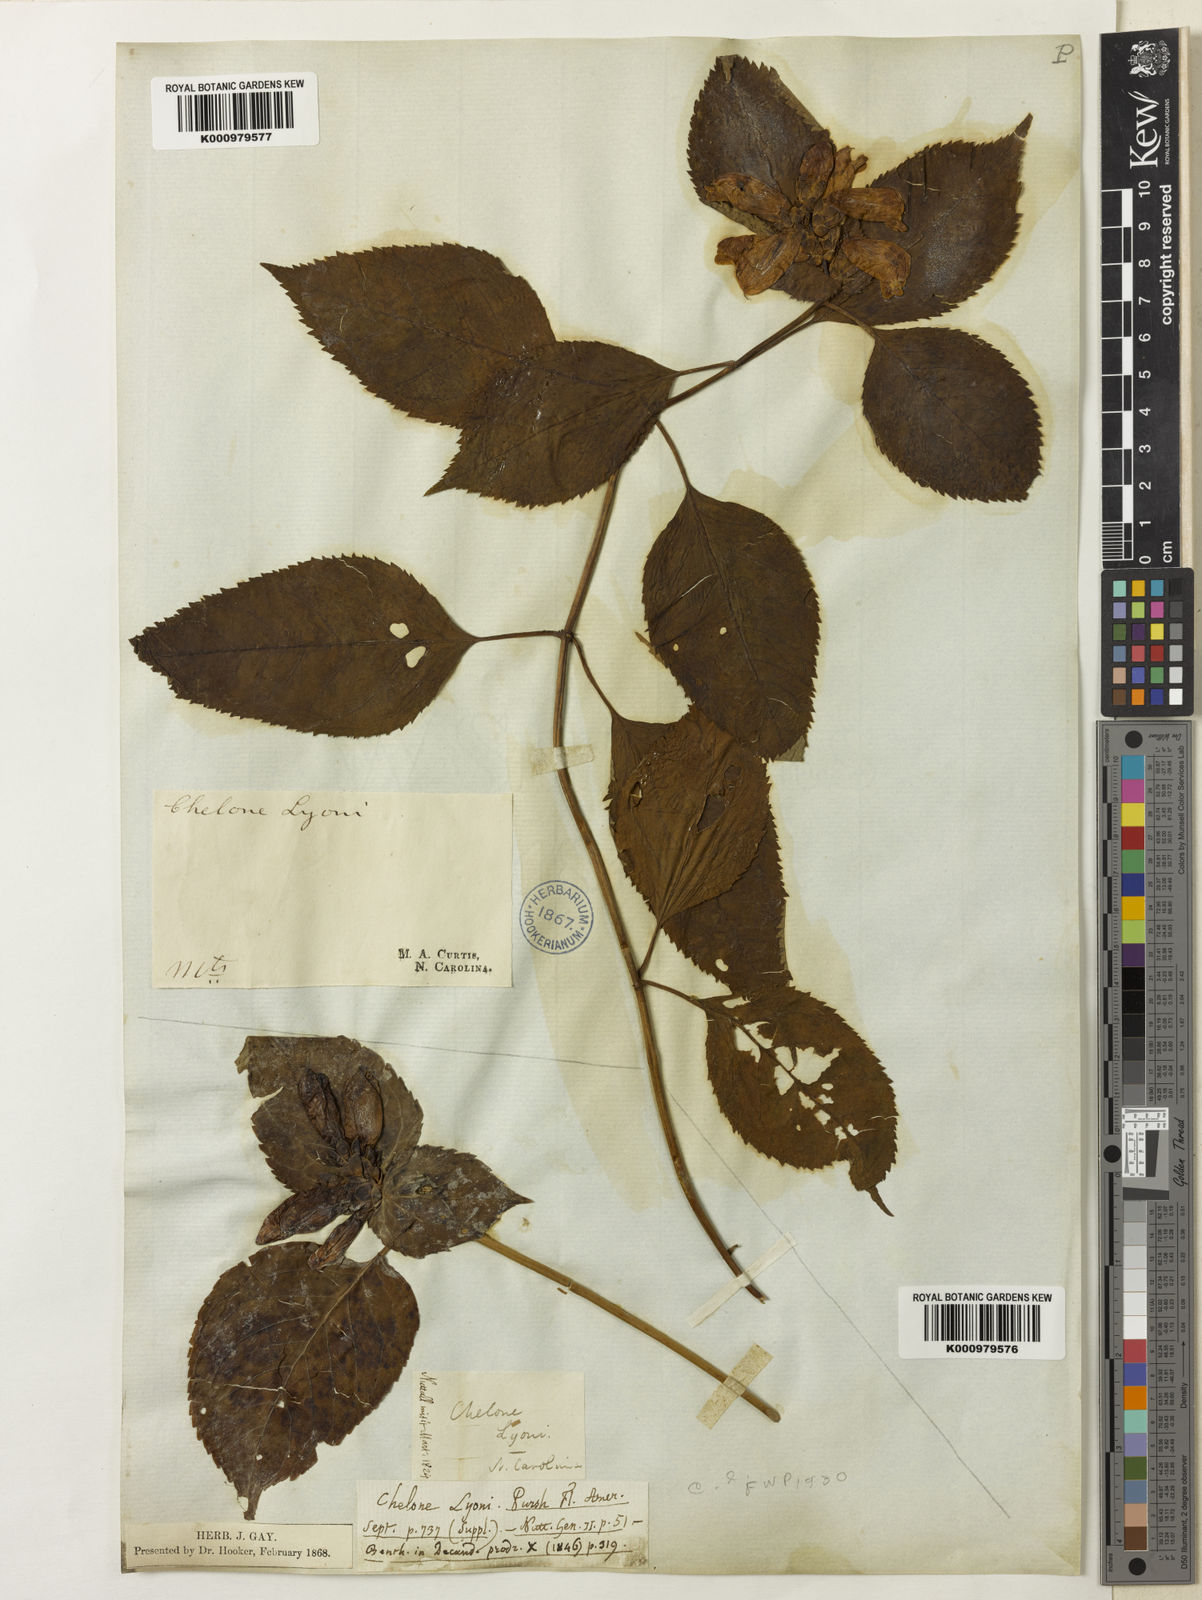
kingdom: Plantae
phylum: Tracheophyta
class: Magnoliopsida
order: Lamiales
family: Plantaginaceae
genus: Chelone
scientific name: Chelone lyonii
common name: Pink turtlehead
